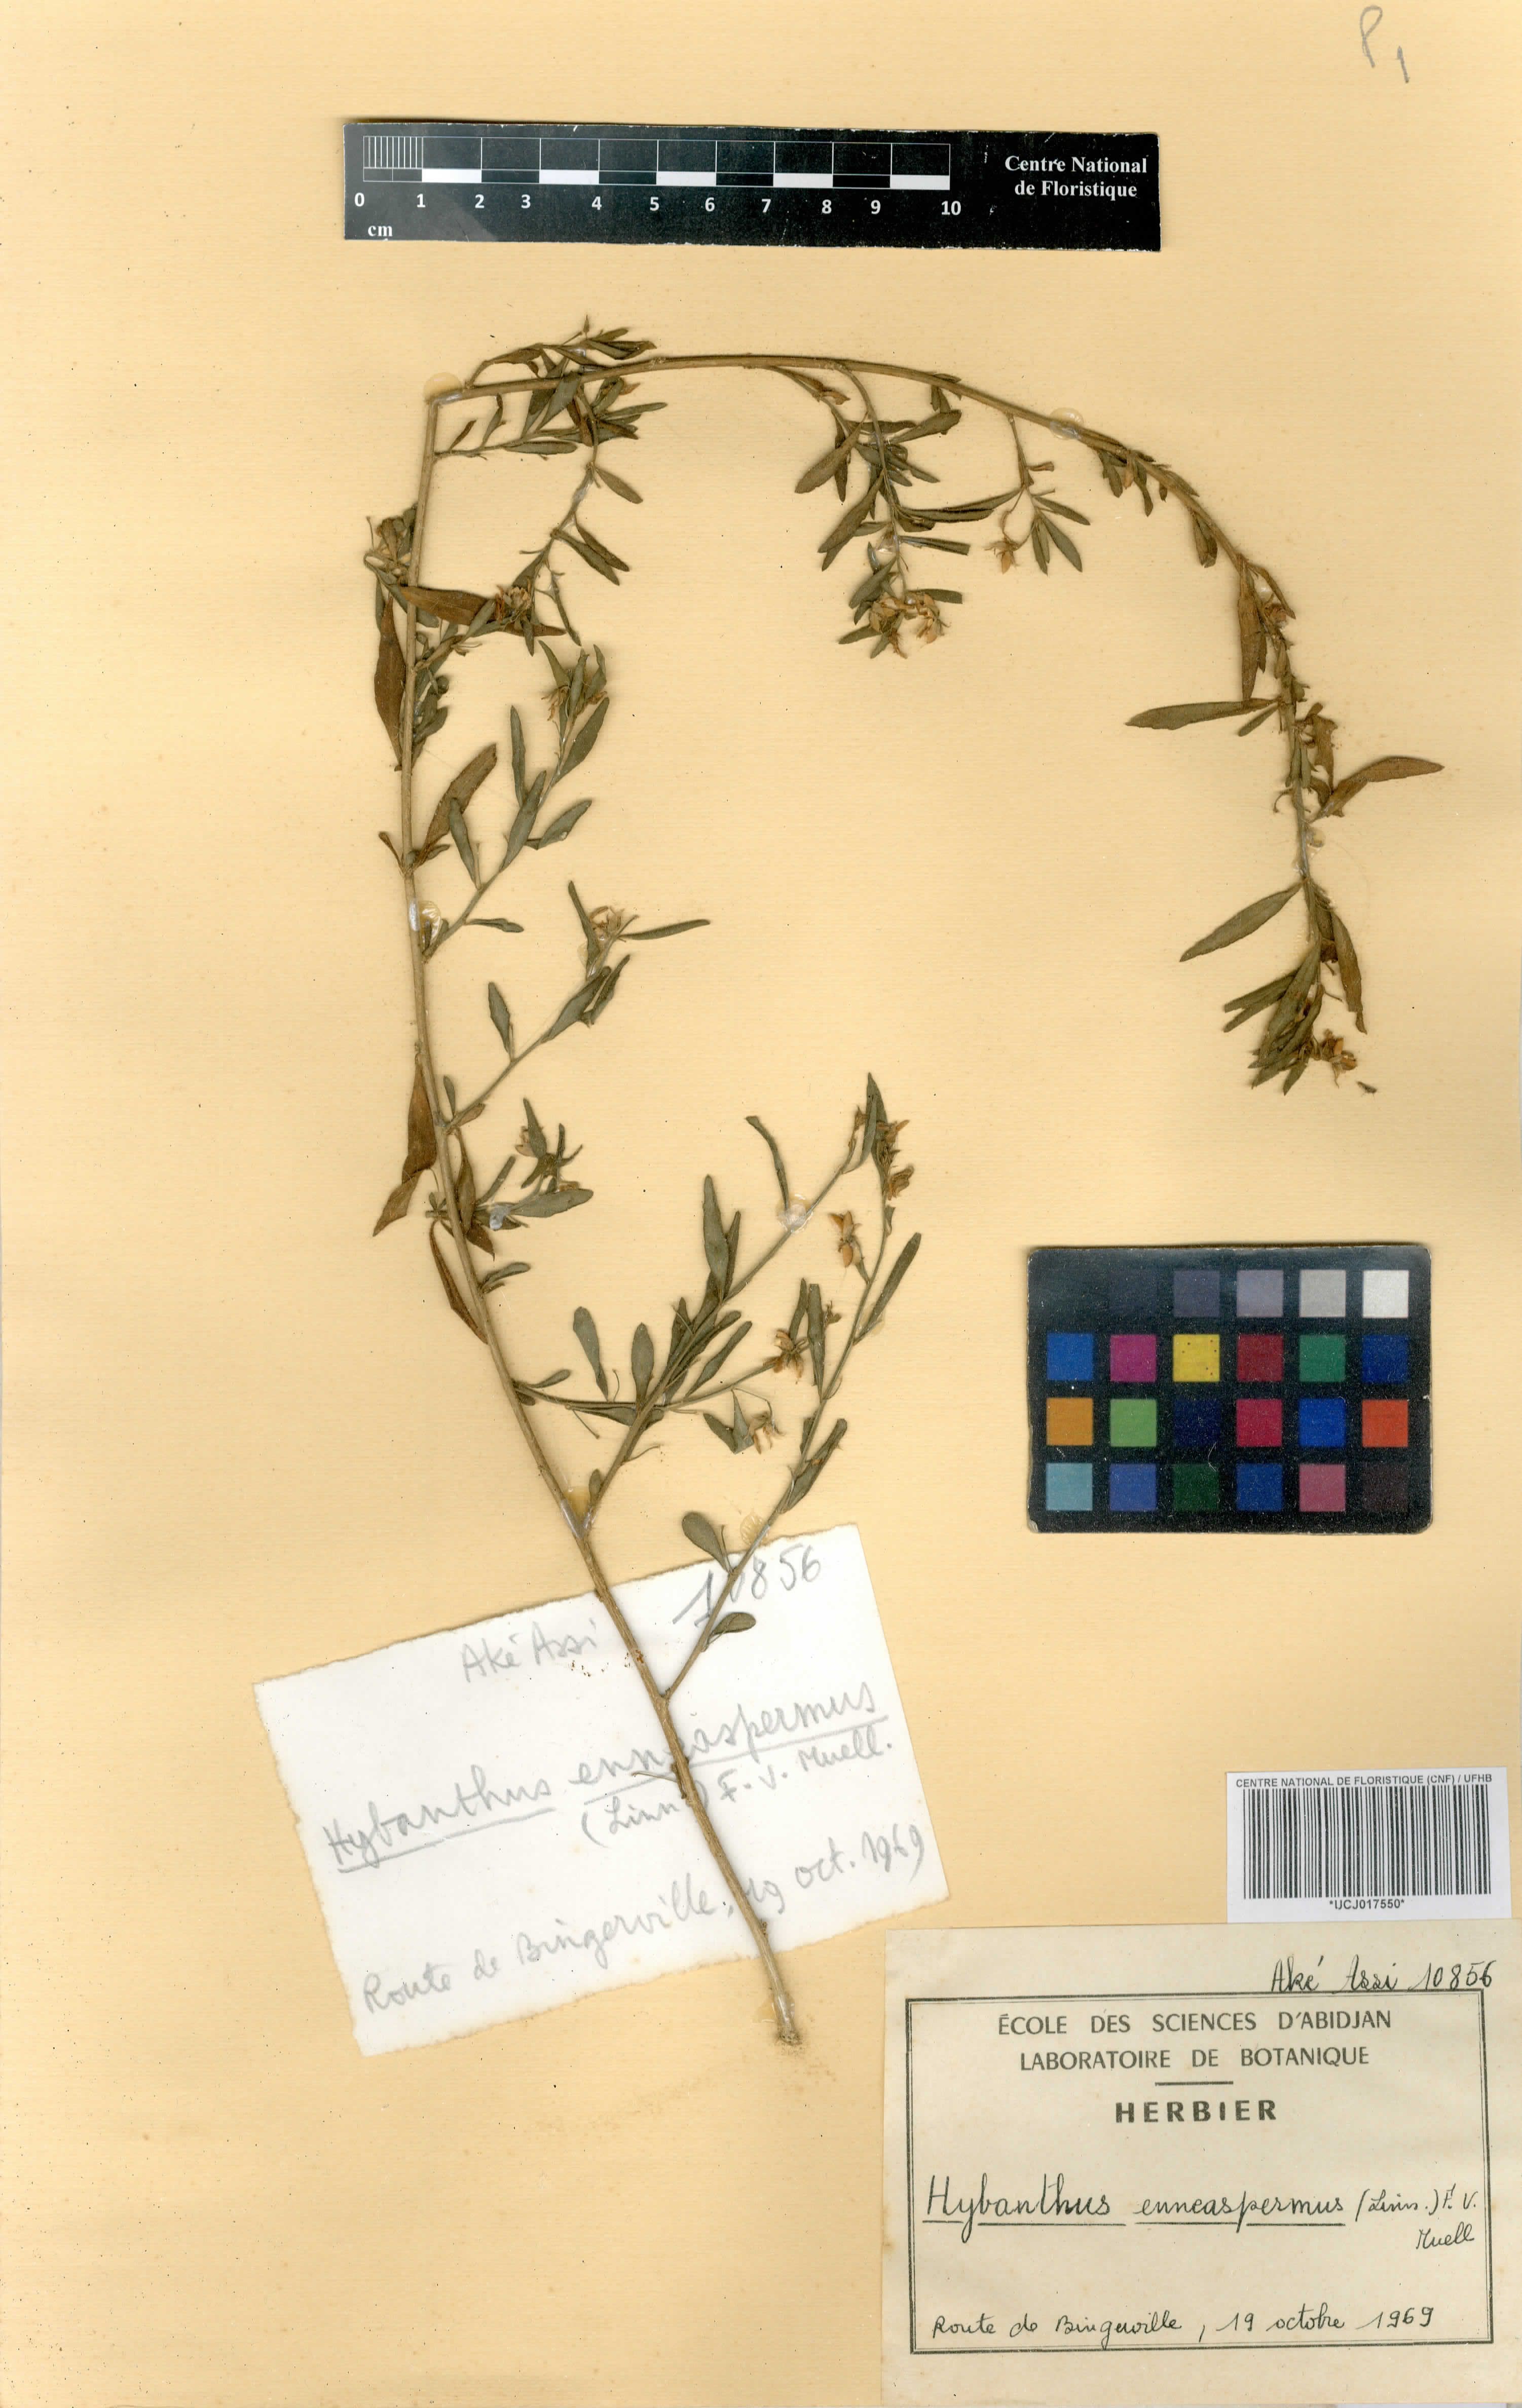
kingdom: Plantae
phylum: Tracheophyta
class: Magnoliopsida
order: Malpighiales
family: Violaceae
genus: Pigea
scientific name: Pigea enneasperma
